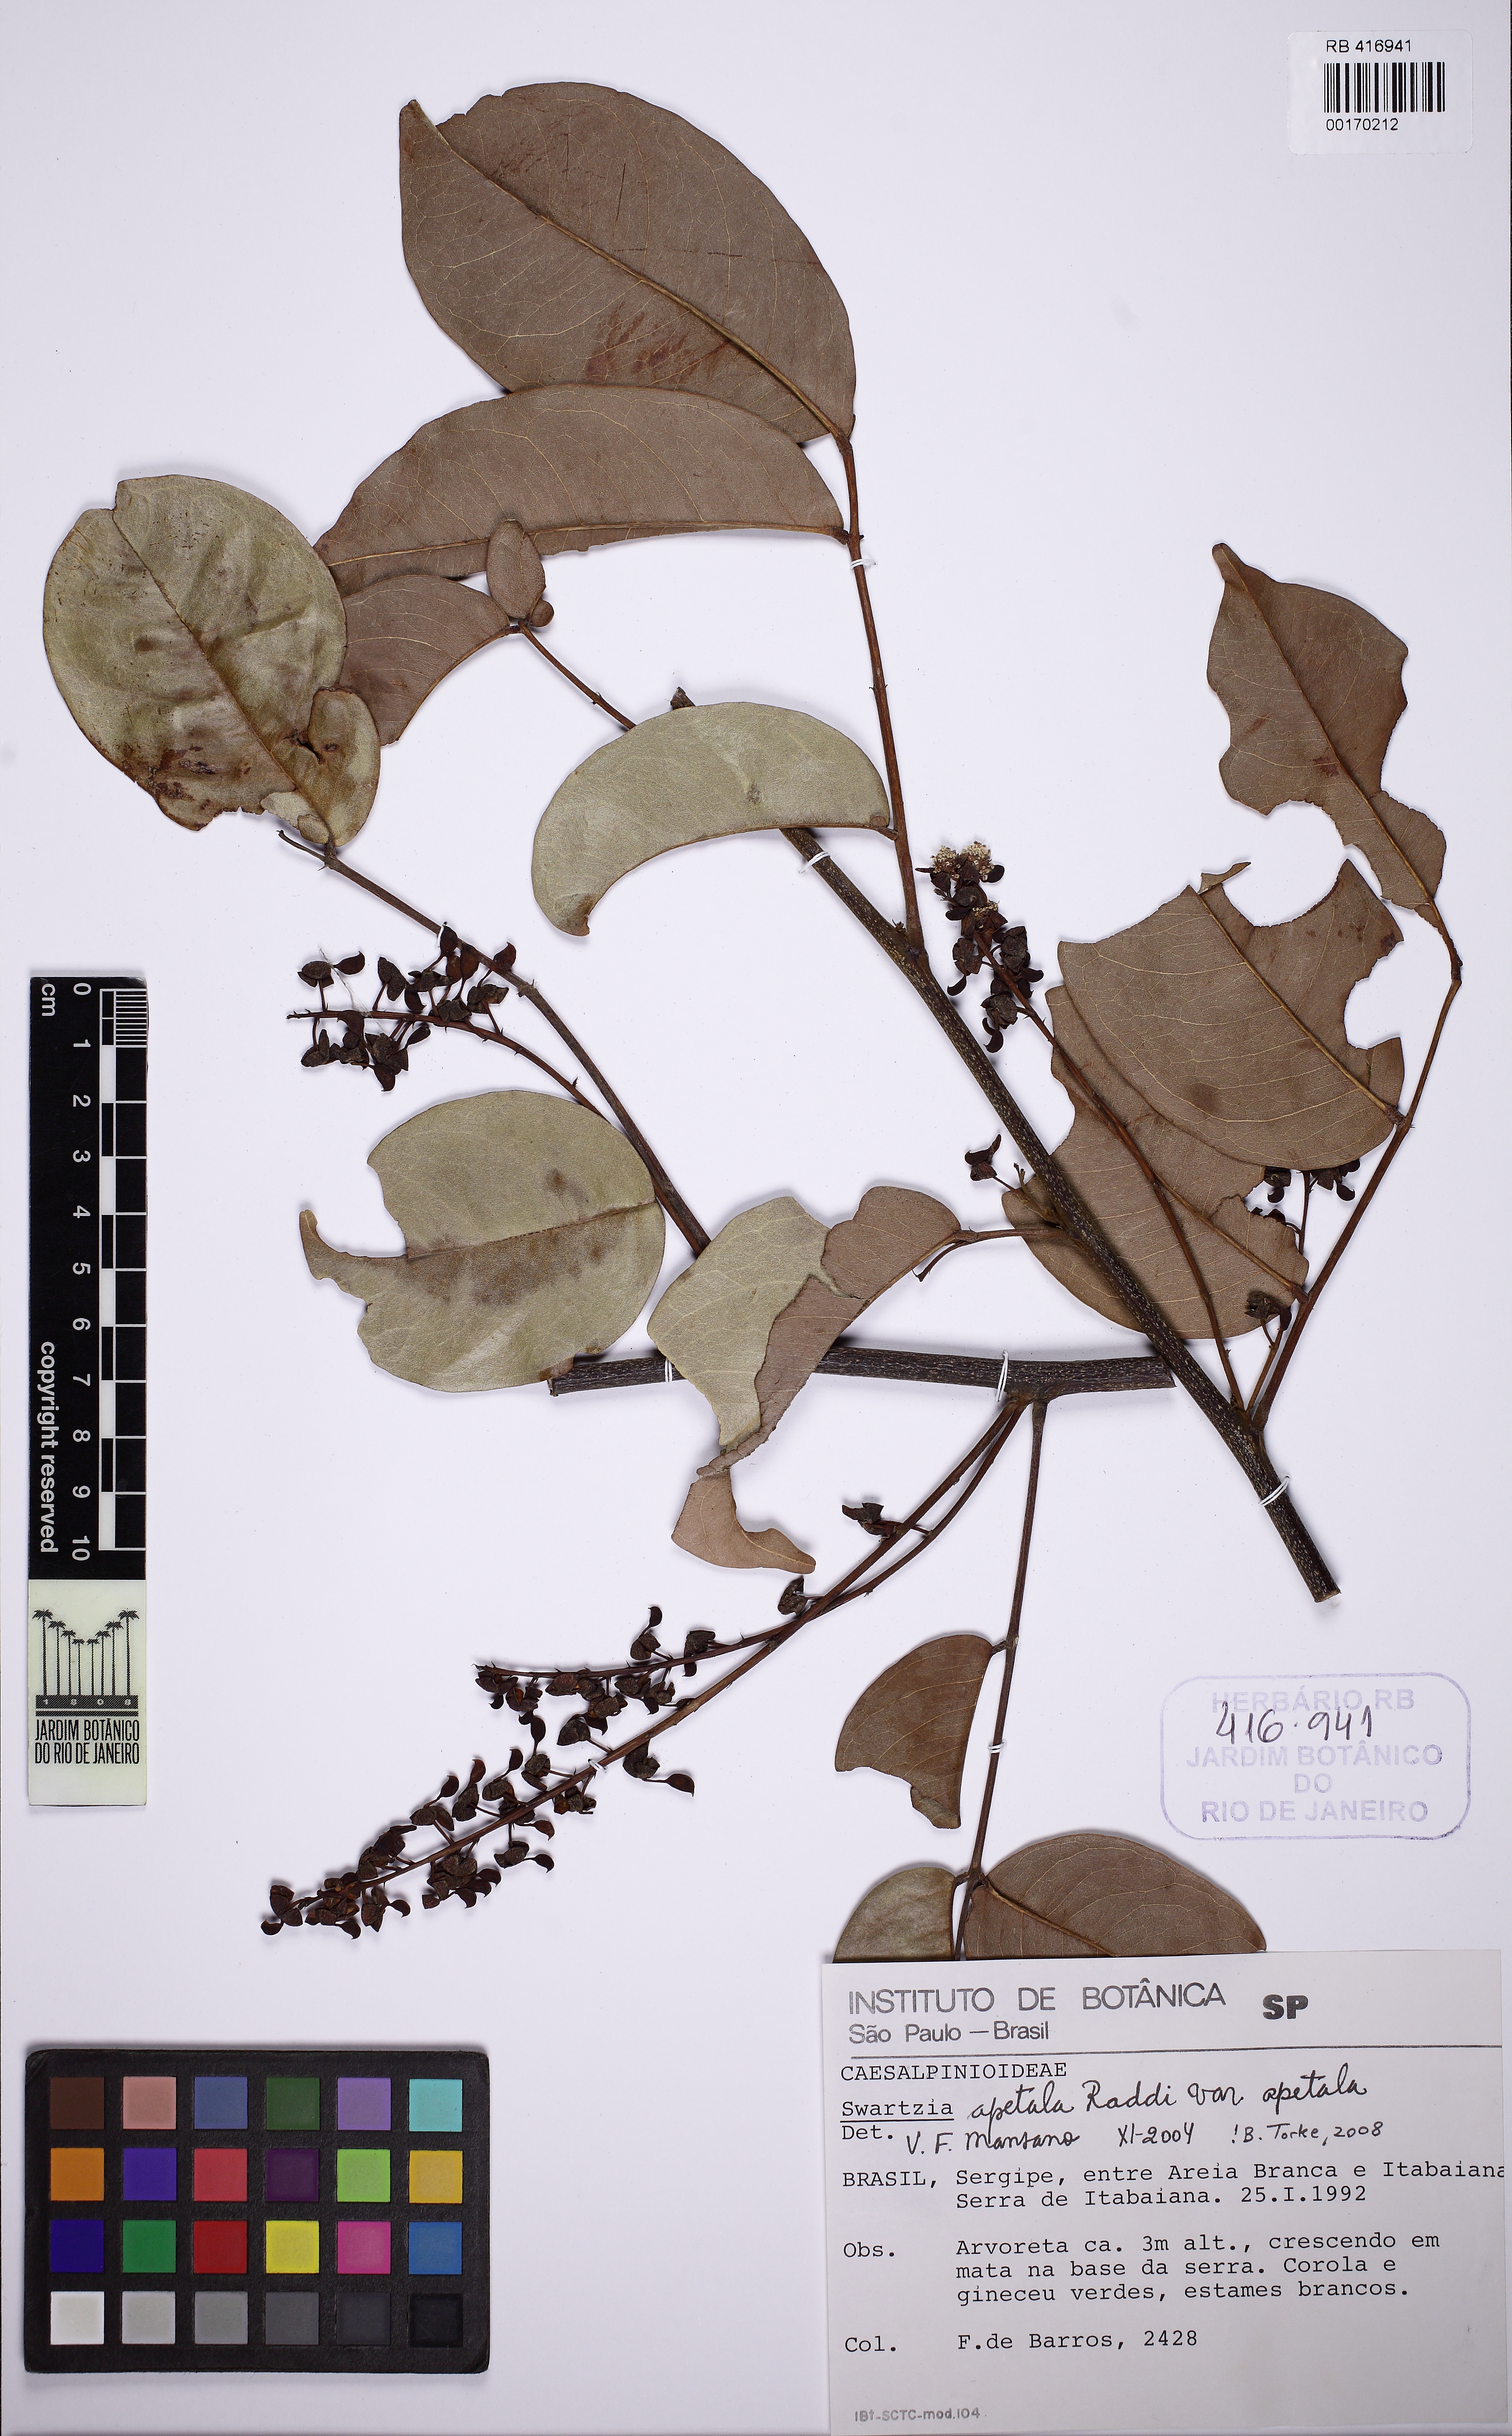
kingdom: Plantae
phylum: Tracheophyta
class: Magnoliopsida
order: Fabales
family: Fabaceae
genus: Swartzia
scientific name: Swartzia
